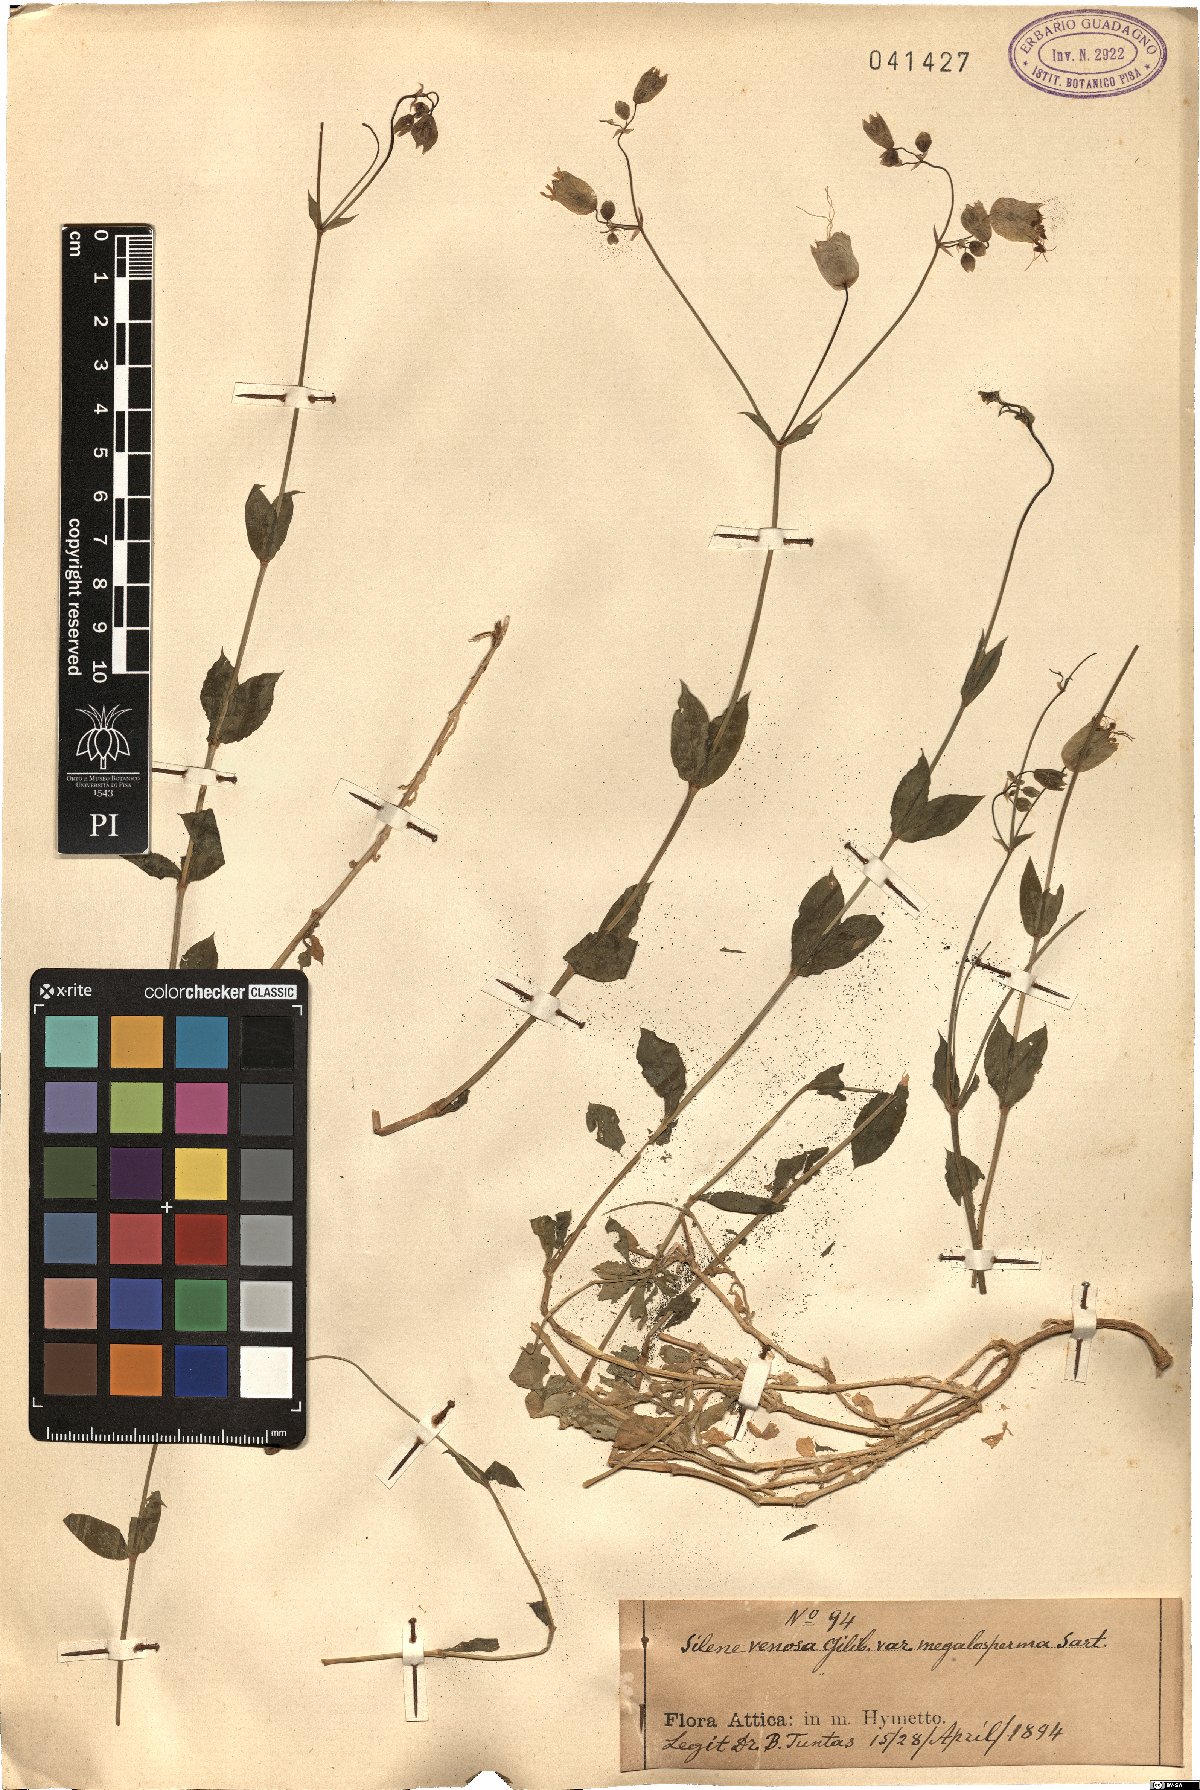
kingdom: Plantae
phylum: Tracheophyta
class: Magnoliopsida
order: Caryophyllales
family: Caryophyllaceae
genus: Silene
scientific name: Silene vulgaris
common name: Bladder campion
